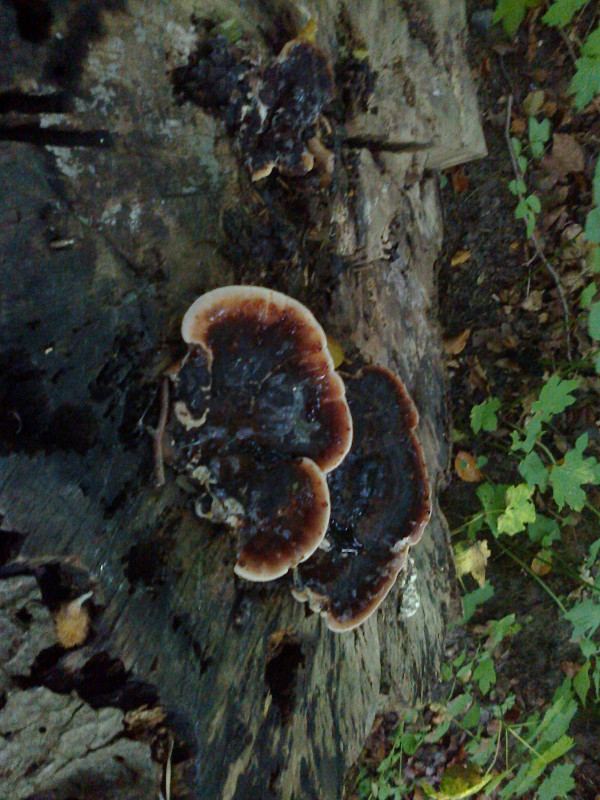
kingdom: Fungi
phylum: Basidiomycota
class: Agaricomycetes
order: Polyporales
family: Ischnodermataceae
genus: Ischnoderma
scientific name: Ischnoderma resinosum
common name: løv-tjæreporesvamp
